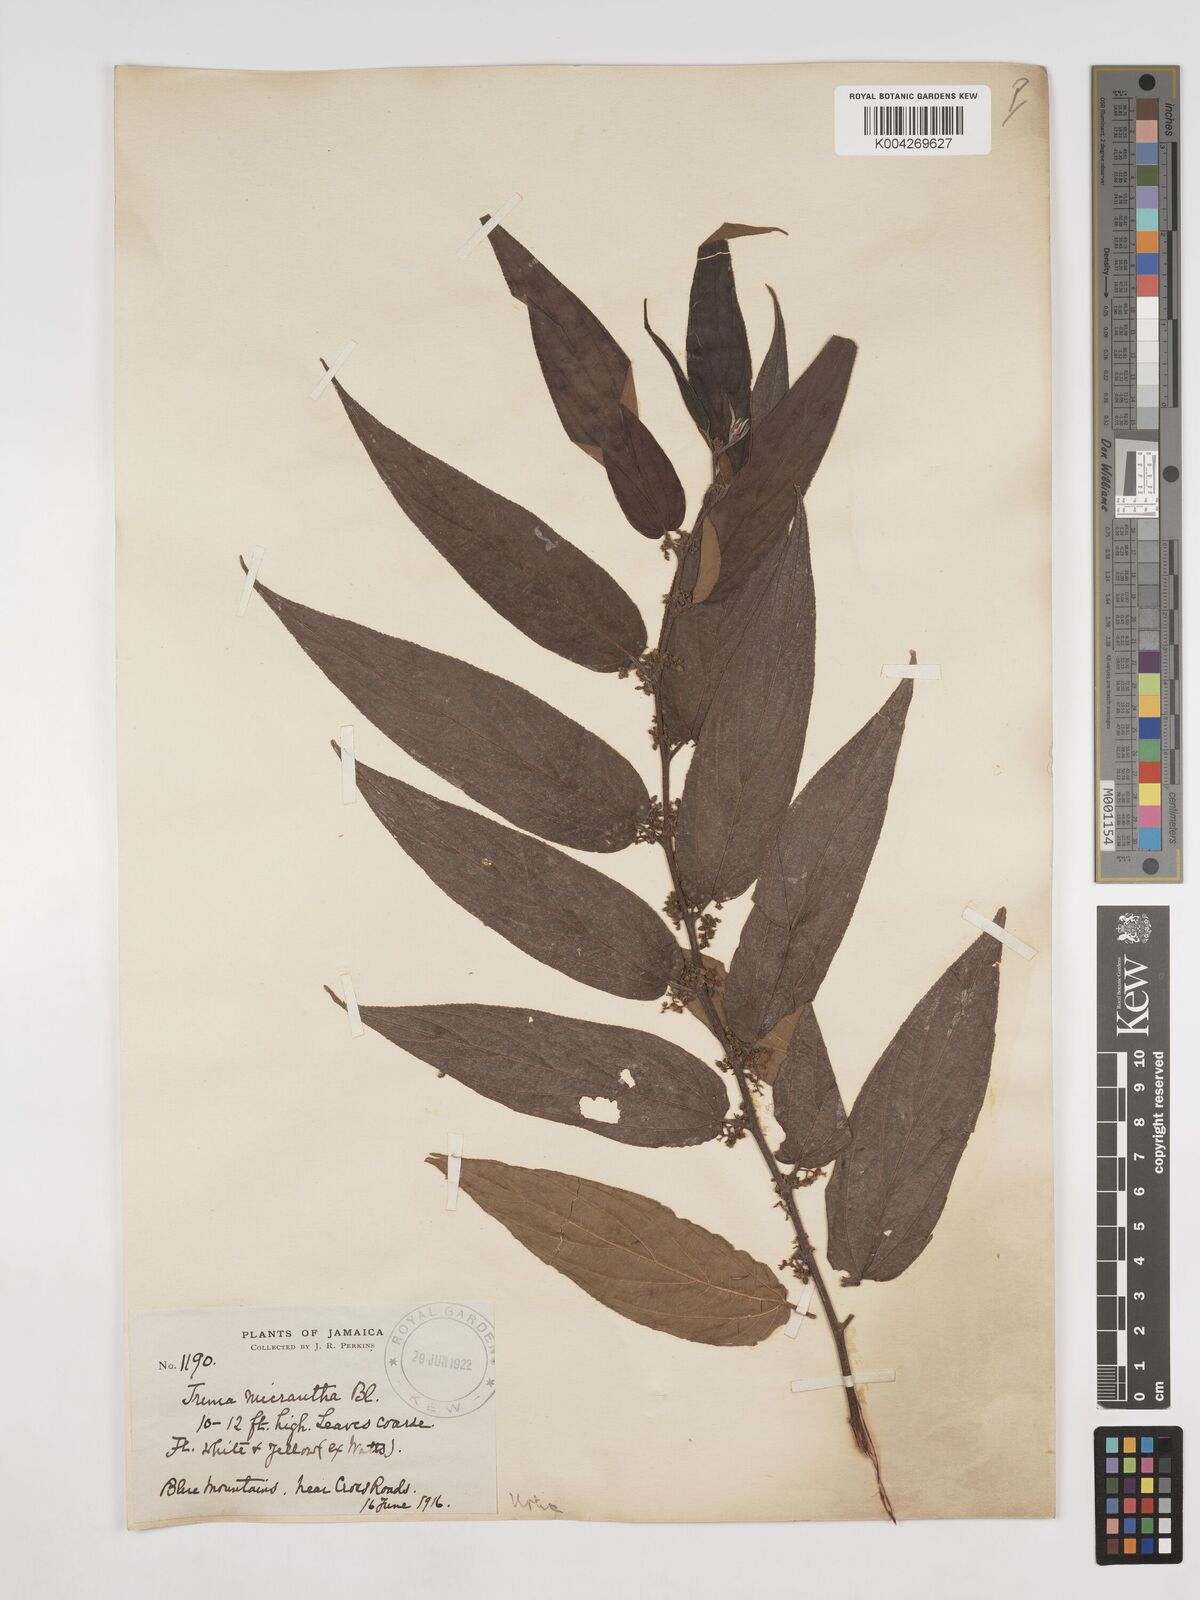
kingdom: Plantae
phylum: Tracheophyta
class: Magnoliopsida
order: Rosales
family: Cannabaceae
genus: Trema
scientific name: Trema micranthum
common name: Jamaican nettletree
